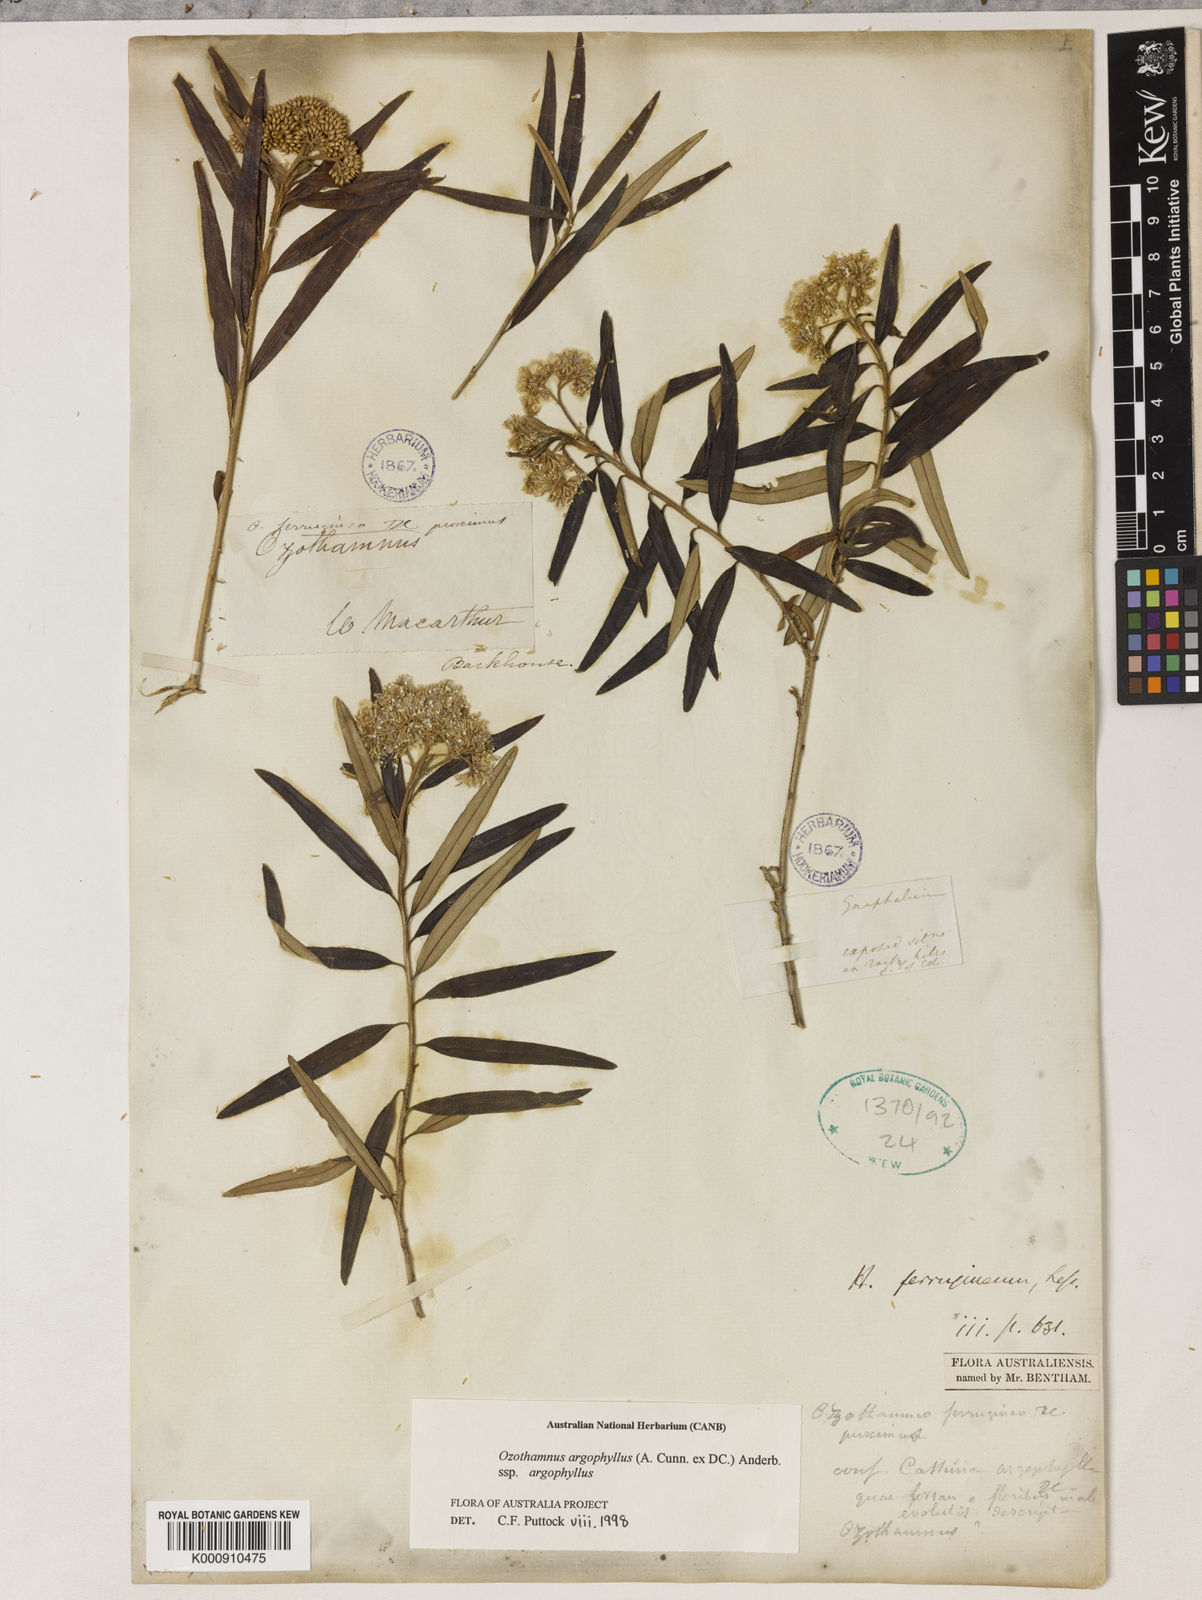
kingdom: Plantae
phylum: Tracheophyta
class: Magnoliopsida
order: Asterales
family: Asteraceae
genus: Ozothamnus
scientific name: Ozothamnus lepidophyllus
